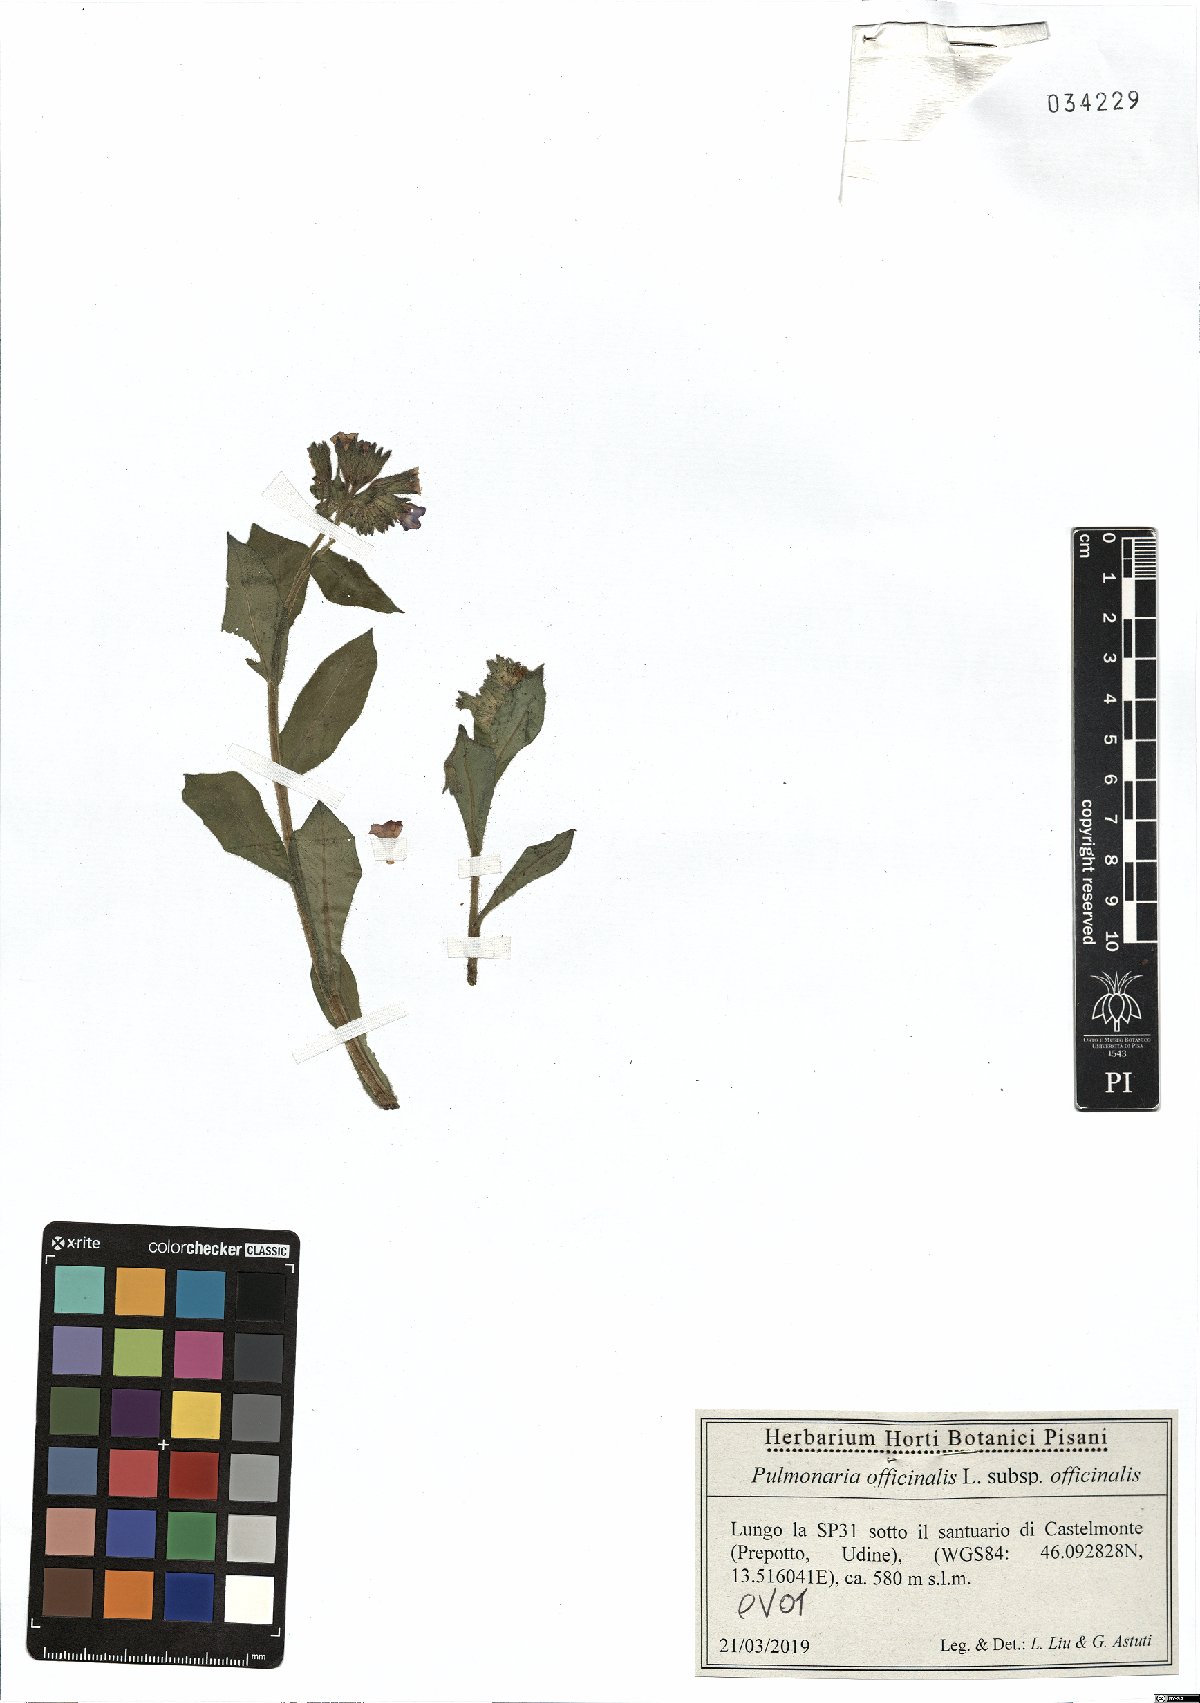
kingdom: Plantae
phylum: Tracheophyta
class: Magnoliopsida
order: Boraginales
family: Boraginaceae
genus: Pulmonaria
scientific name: Pulmonaria officinalis
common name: Lungwort
